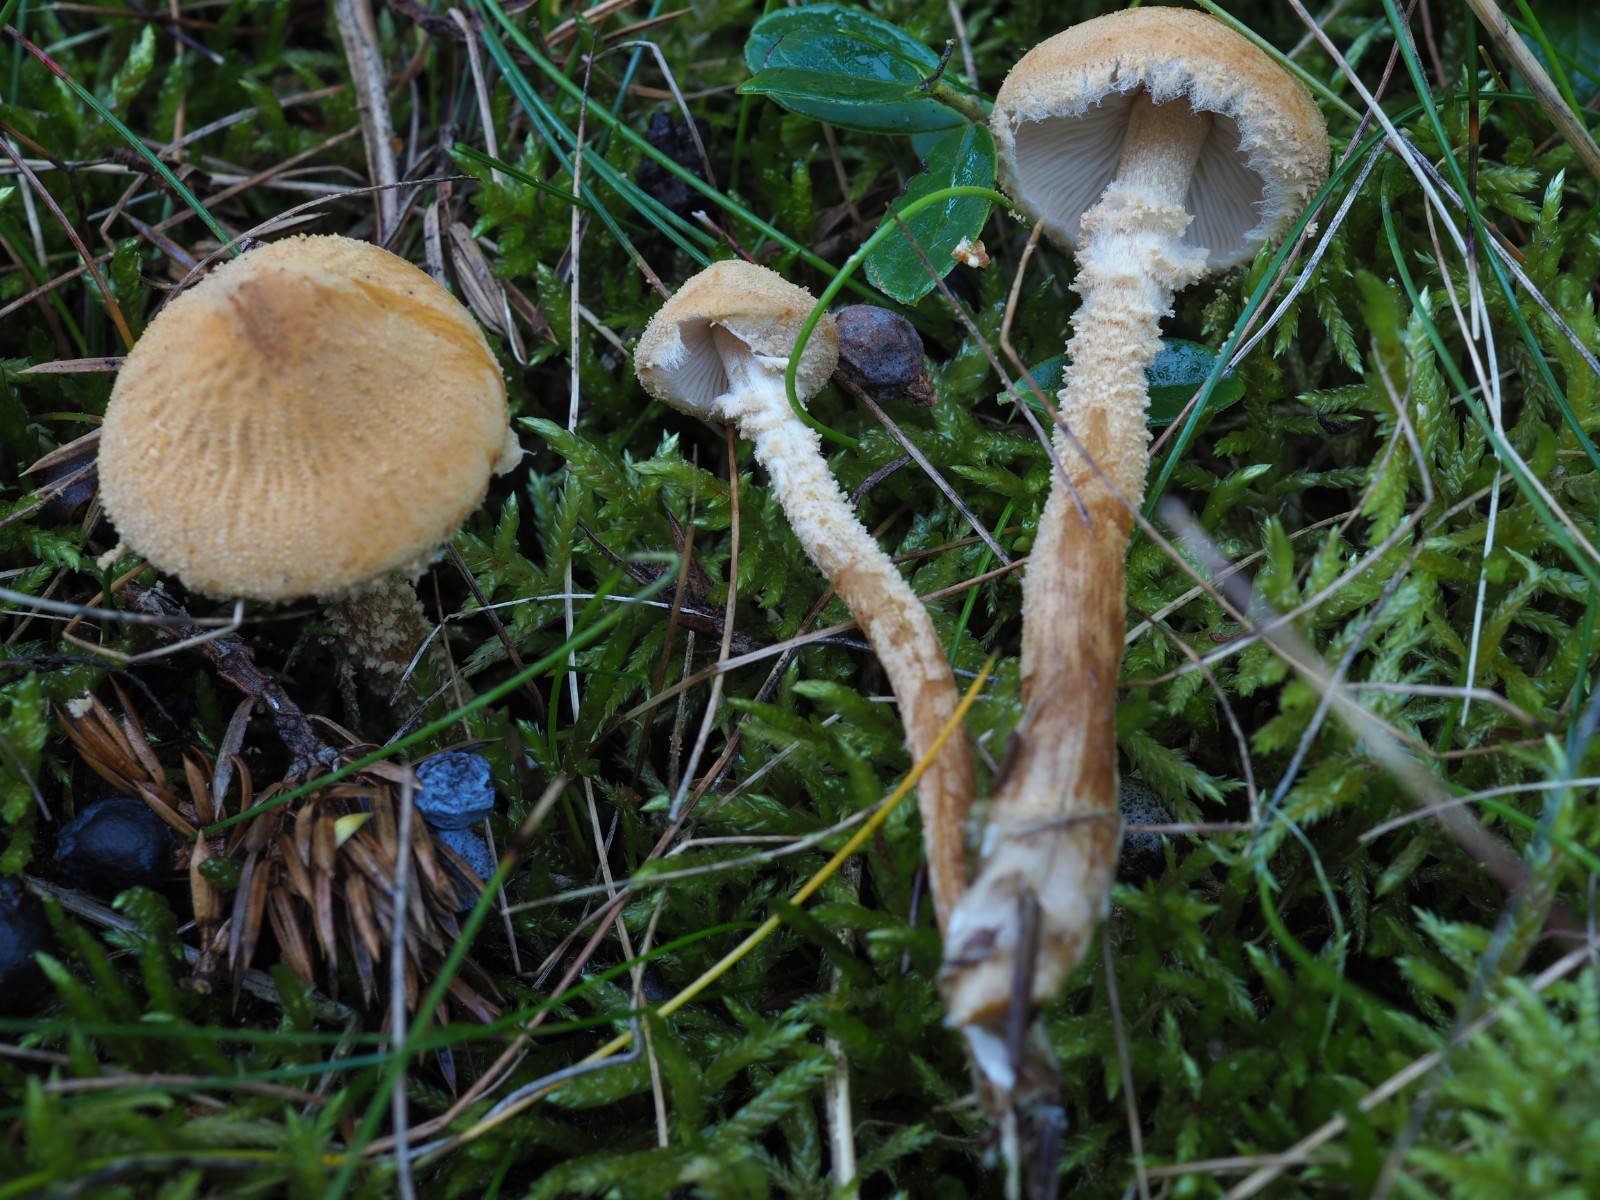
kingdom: Fungi
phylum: Basidiomycota
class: Agaricomycetes
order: Agaricales
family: Tricholomataceae
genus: Cystoderma
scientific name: Cystoderma amianthinum
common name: okkergul grynhat
